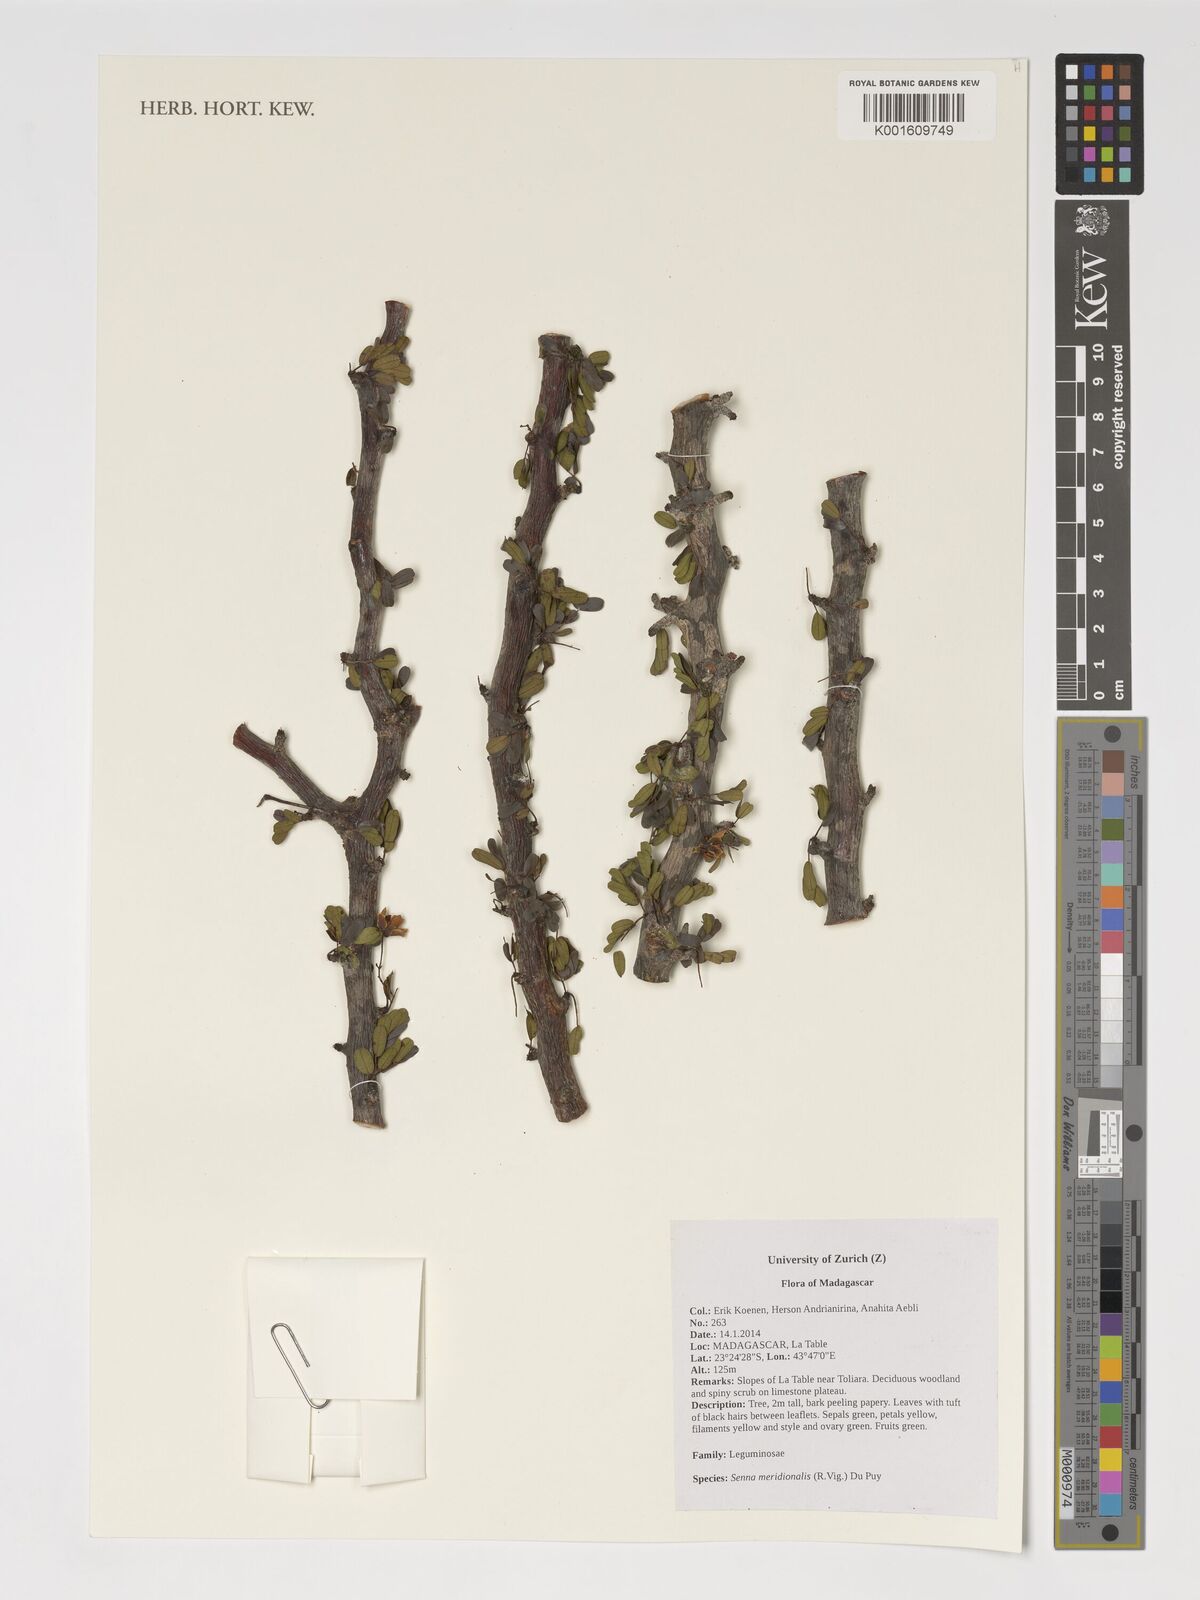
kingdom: Plantae
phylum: Tracheophyta
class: Magnoliopsida
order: Fabales
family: Fabaceae
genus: Senna
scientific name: Senna meridionalis
